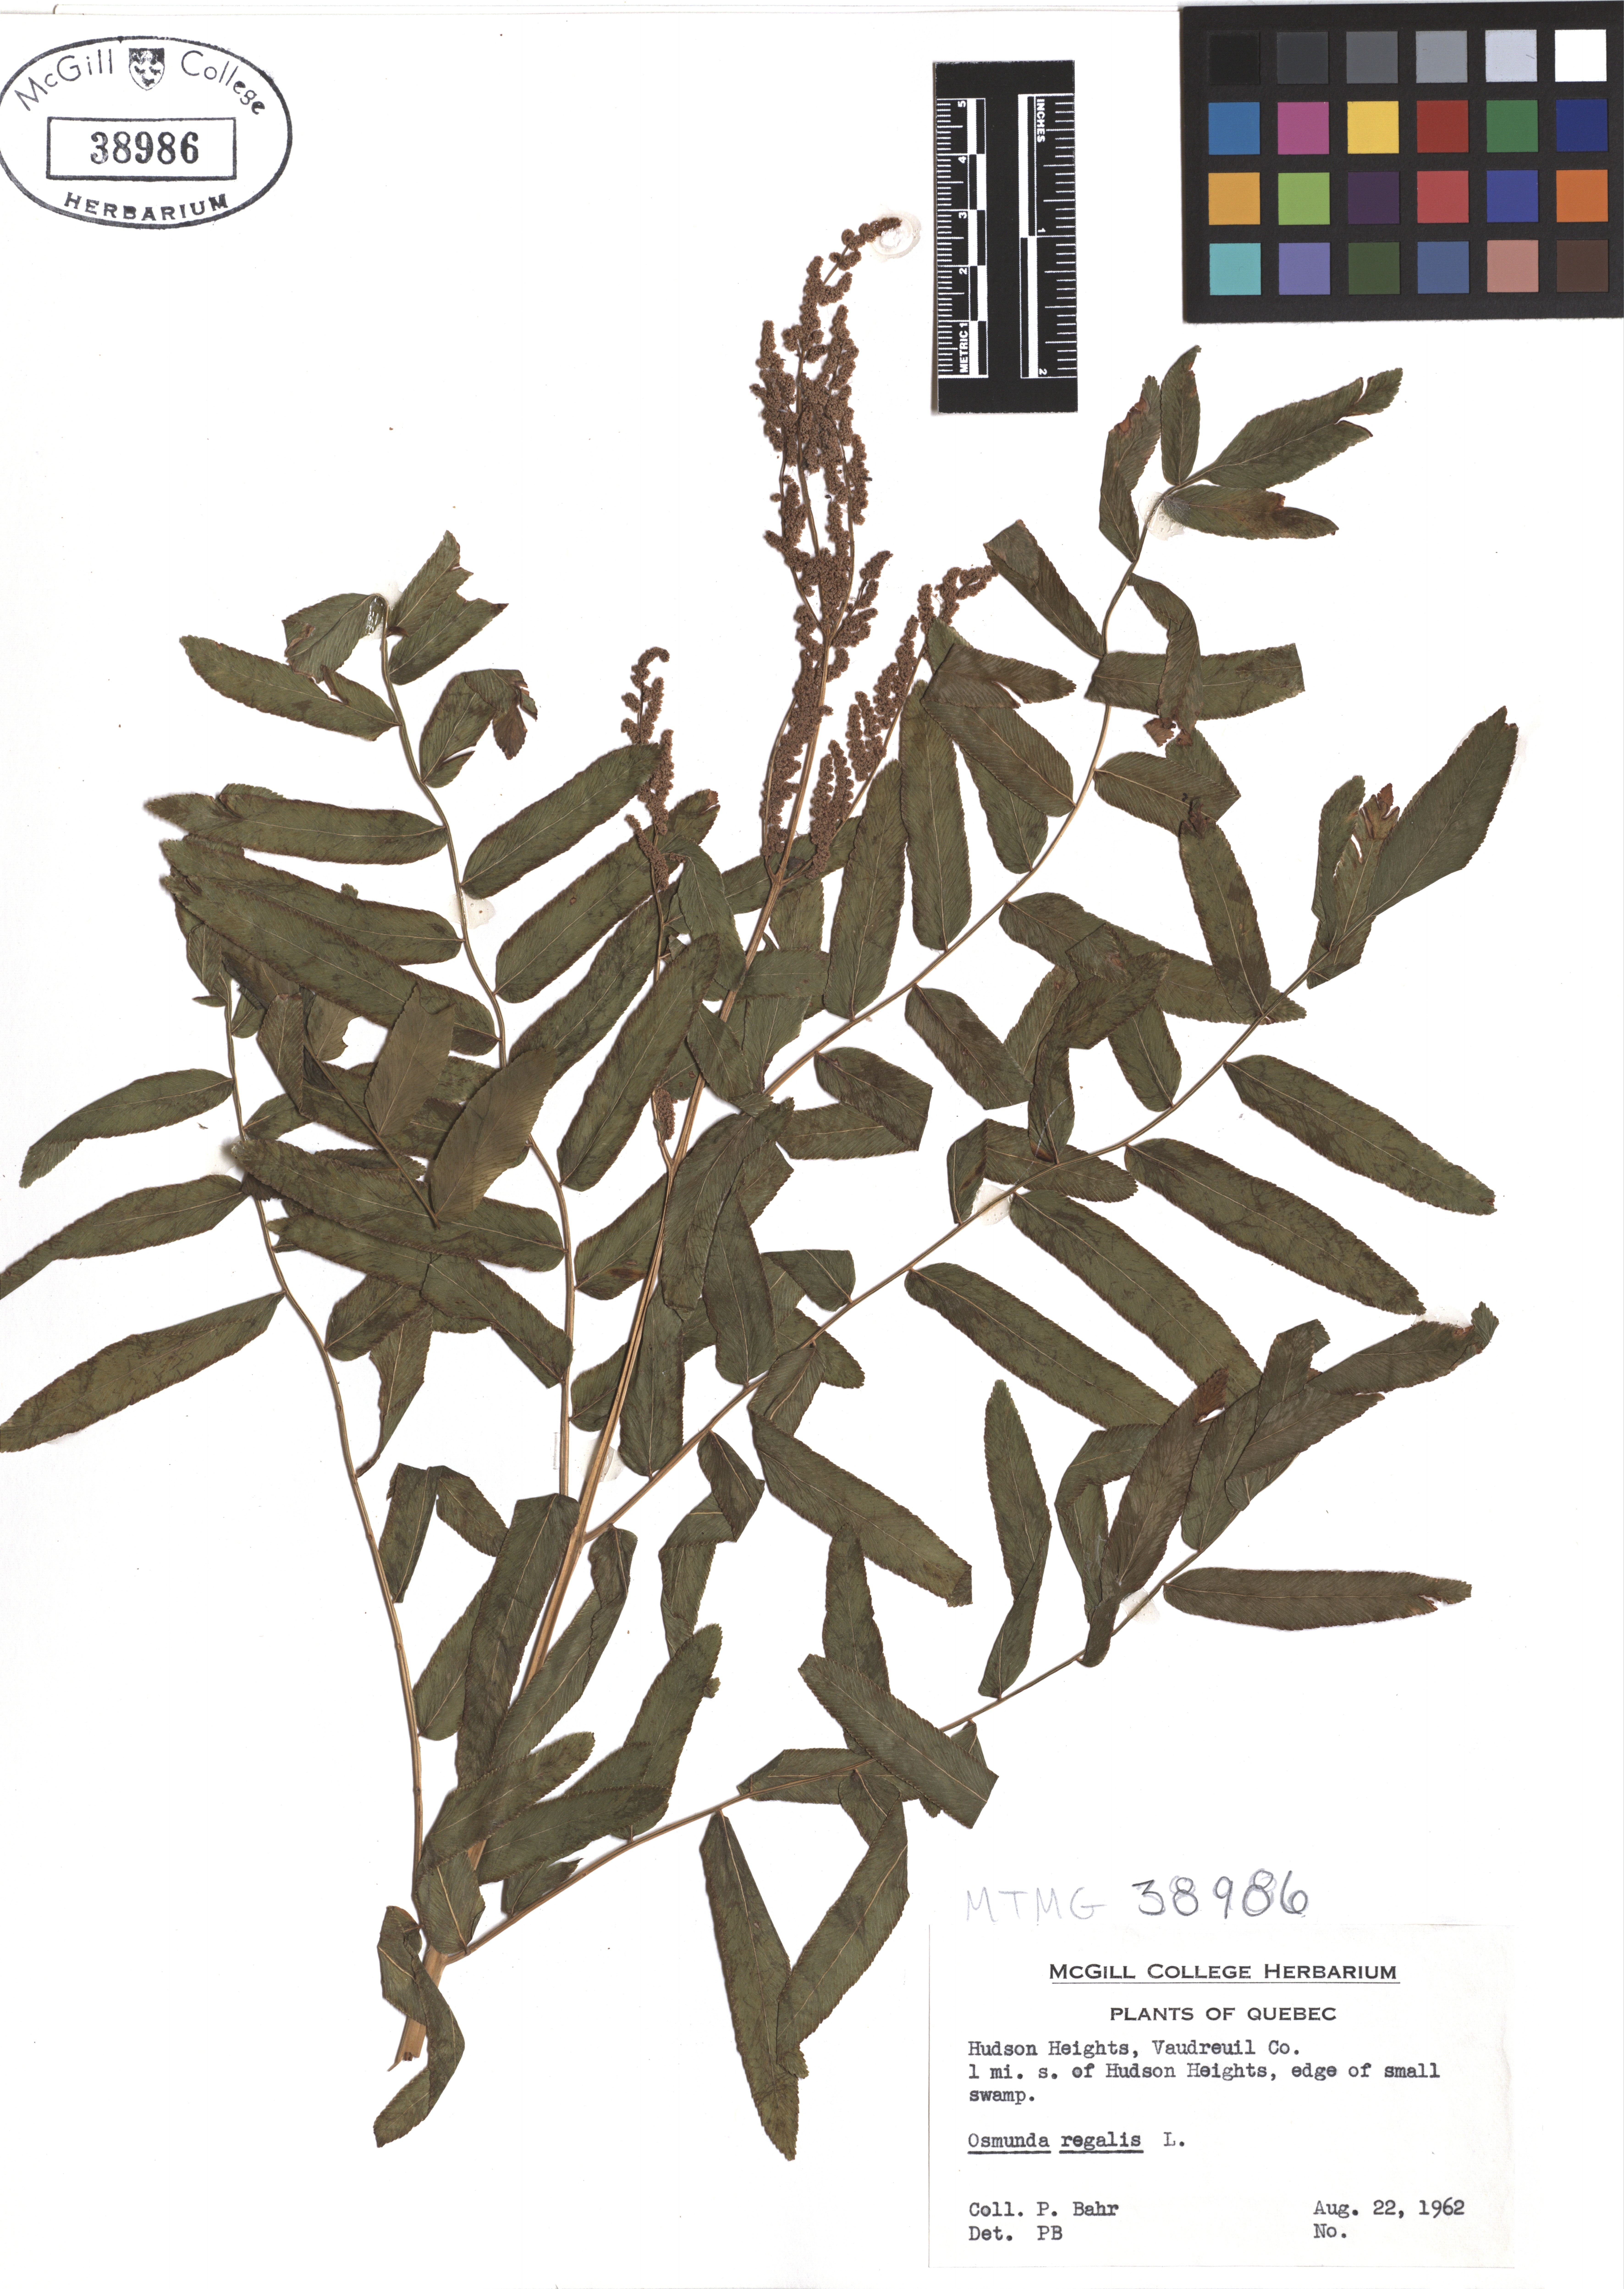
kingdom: Plantae
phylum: Tracheophyta
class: Polypodiopsida
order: Osmundales
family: Osmundaceae
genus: Osmunda
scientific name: Osmunda regalis
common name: Royal fern
